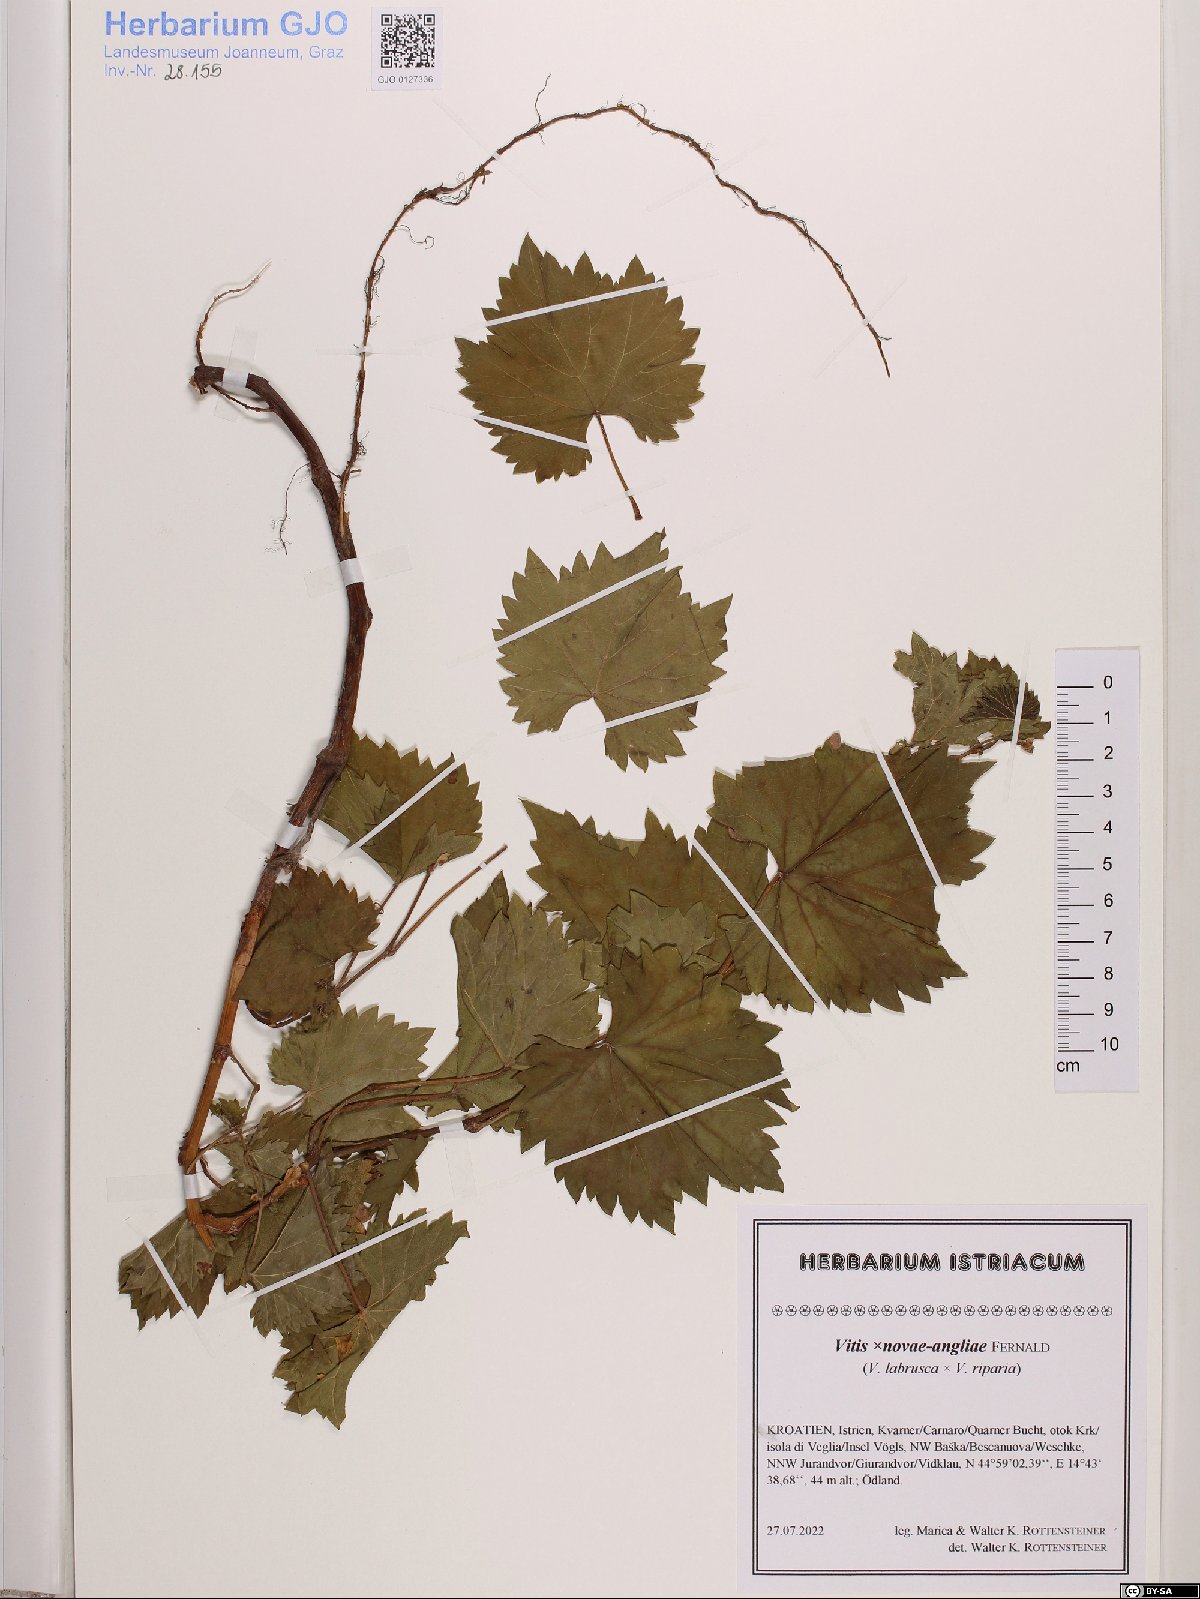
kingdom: Plantae
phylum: Tracheophyta
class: Magnoliopsida
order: Vitales
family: Vitaceae
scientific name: Vitaceae
